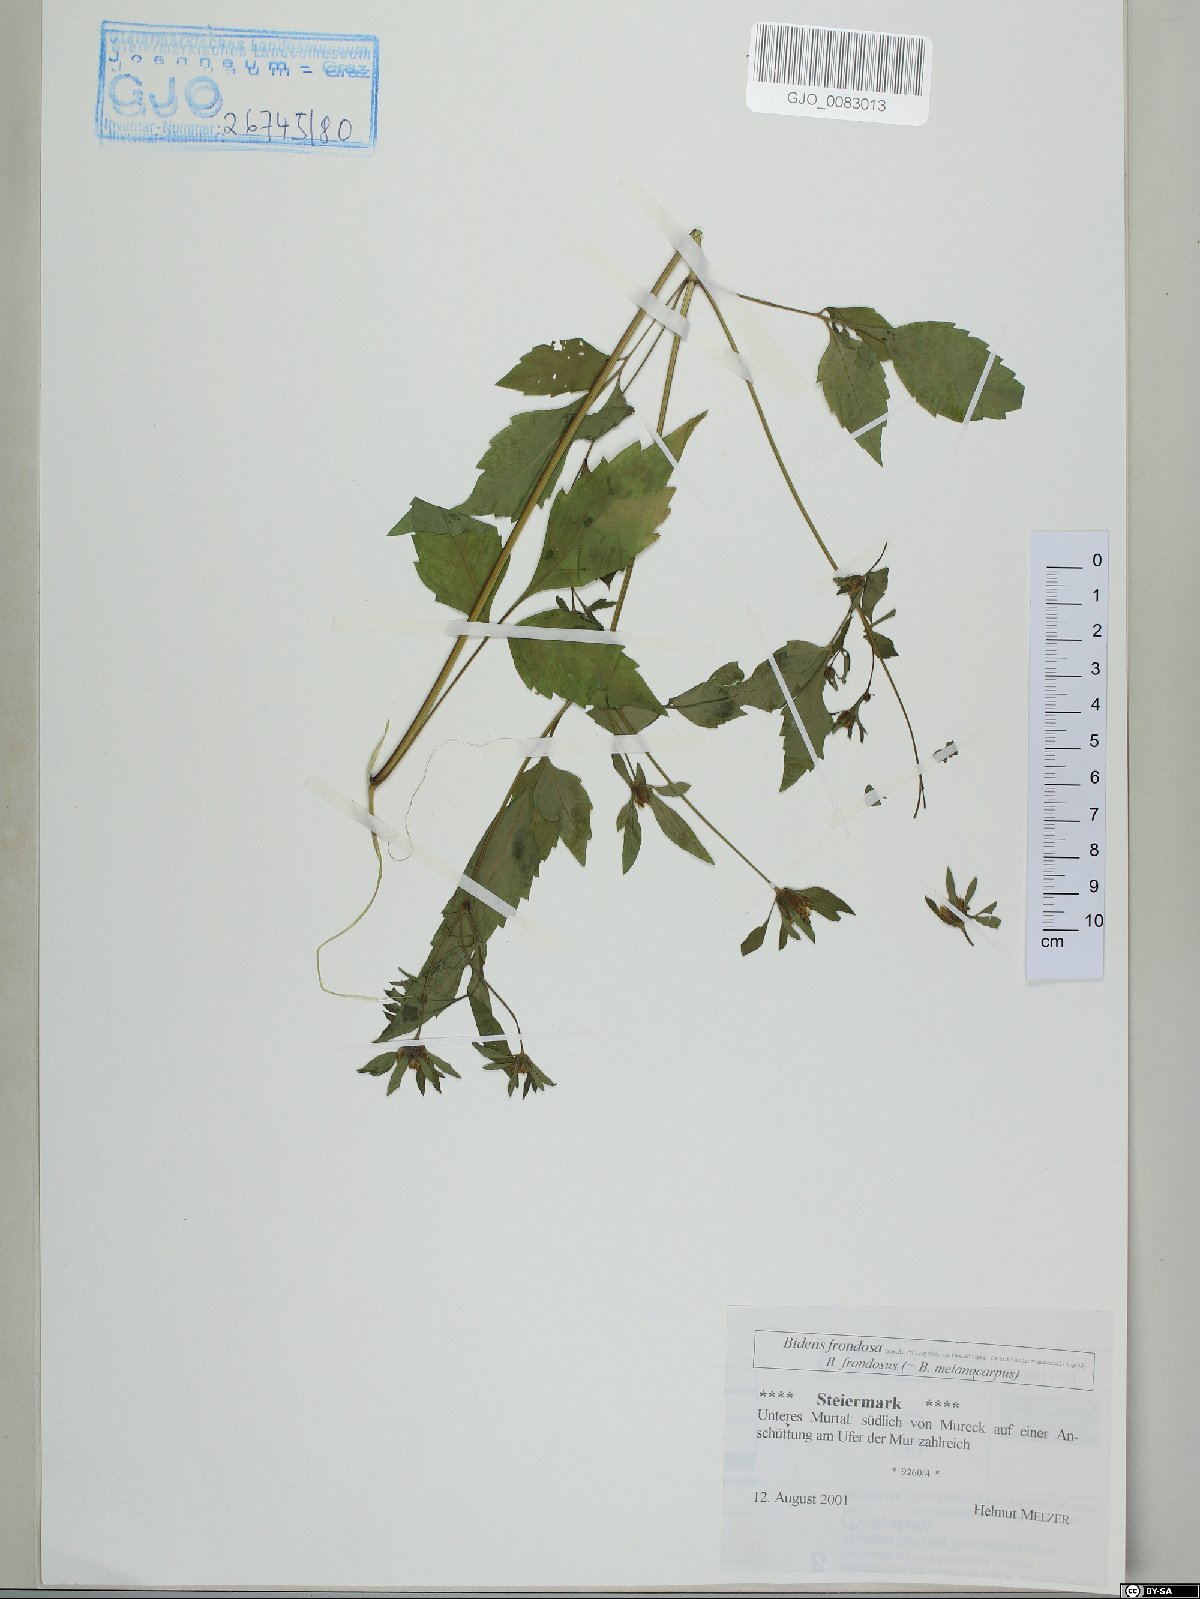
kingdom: Plantae
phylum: Tracheophyta
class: Magnoliopsida
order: Asterales
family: Asteraceae
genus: Bidens
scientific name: Bidens frondosa
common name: Beggarticks
